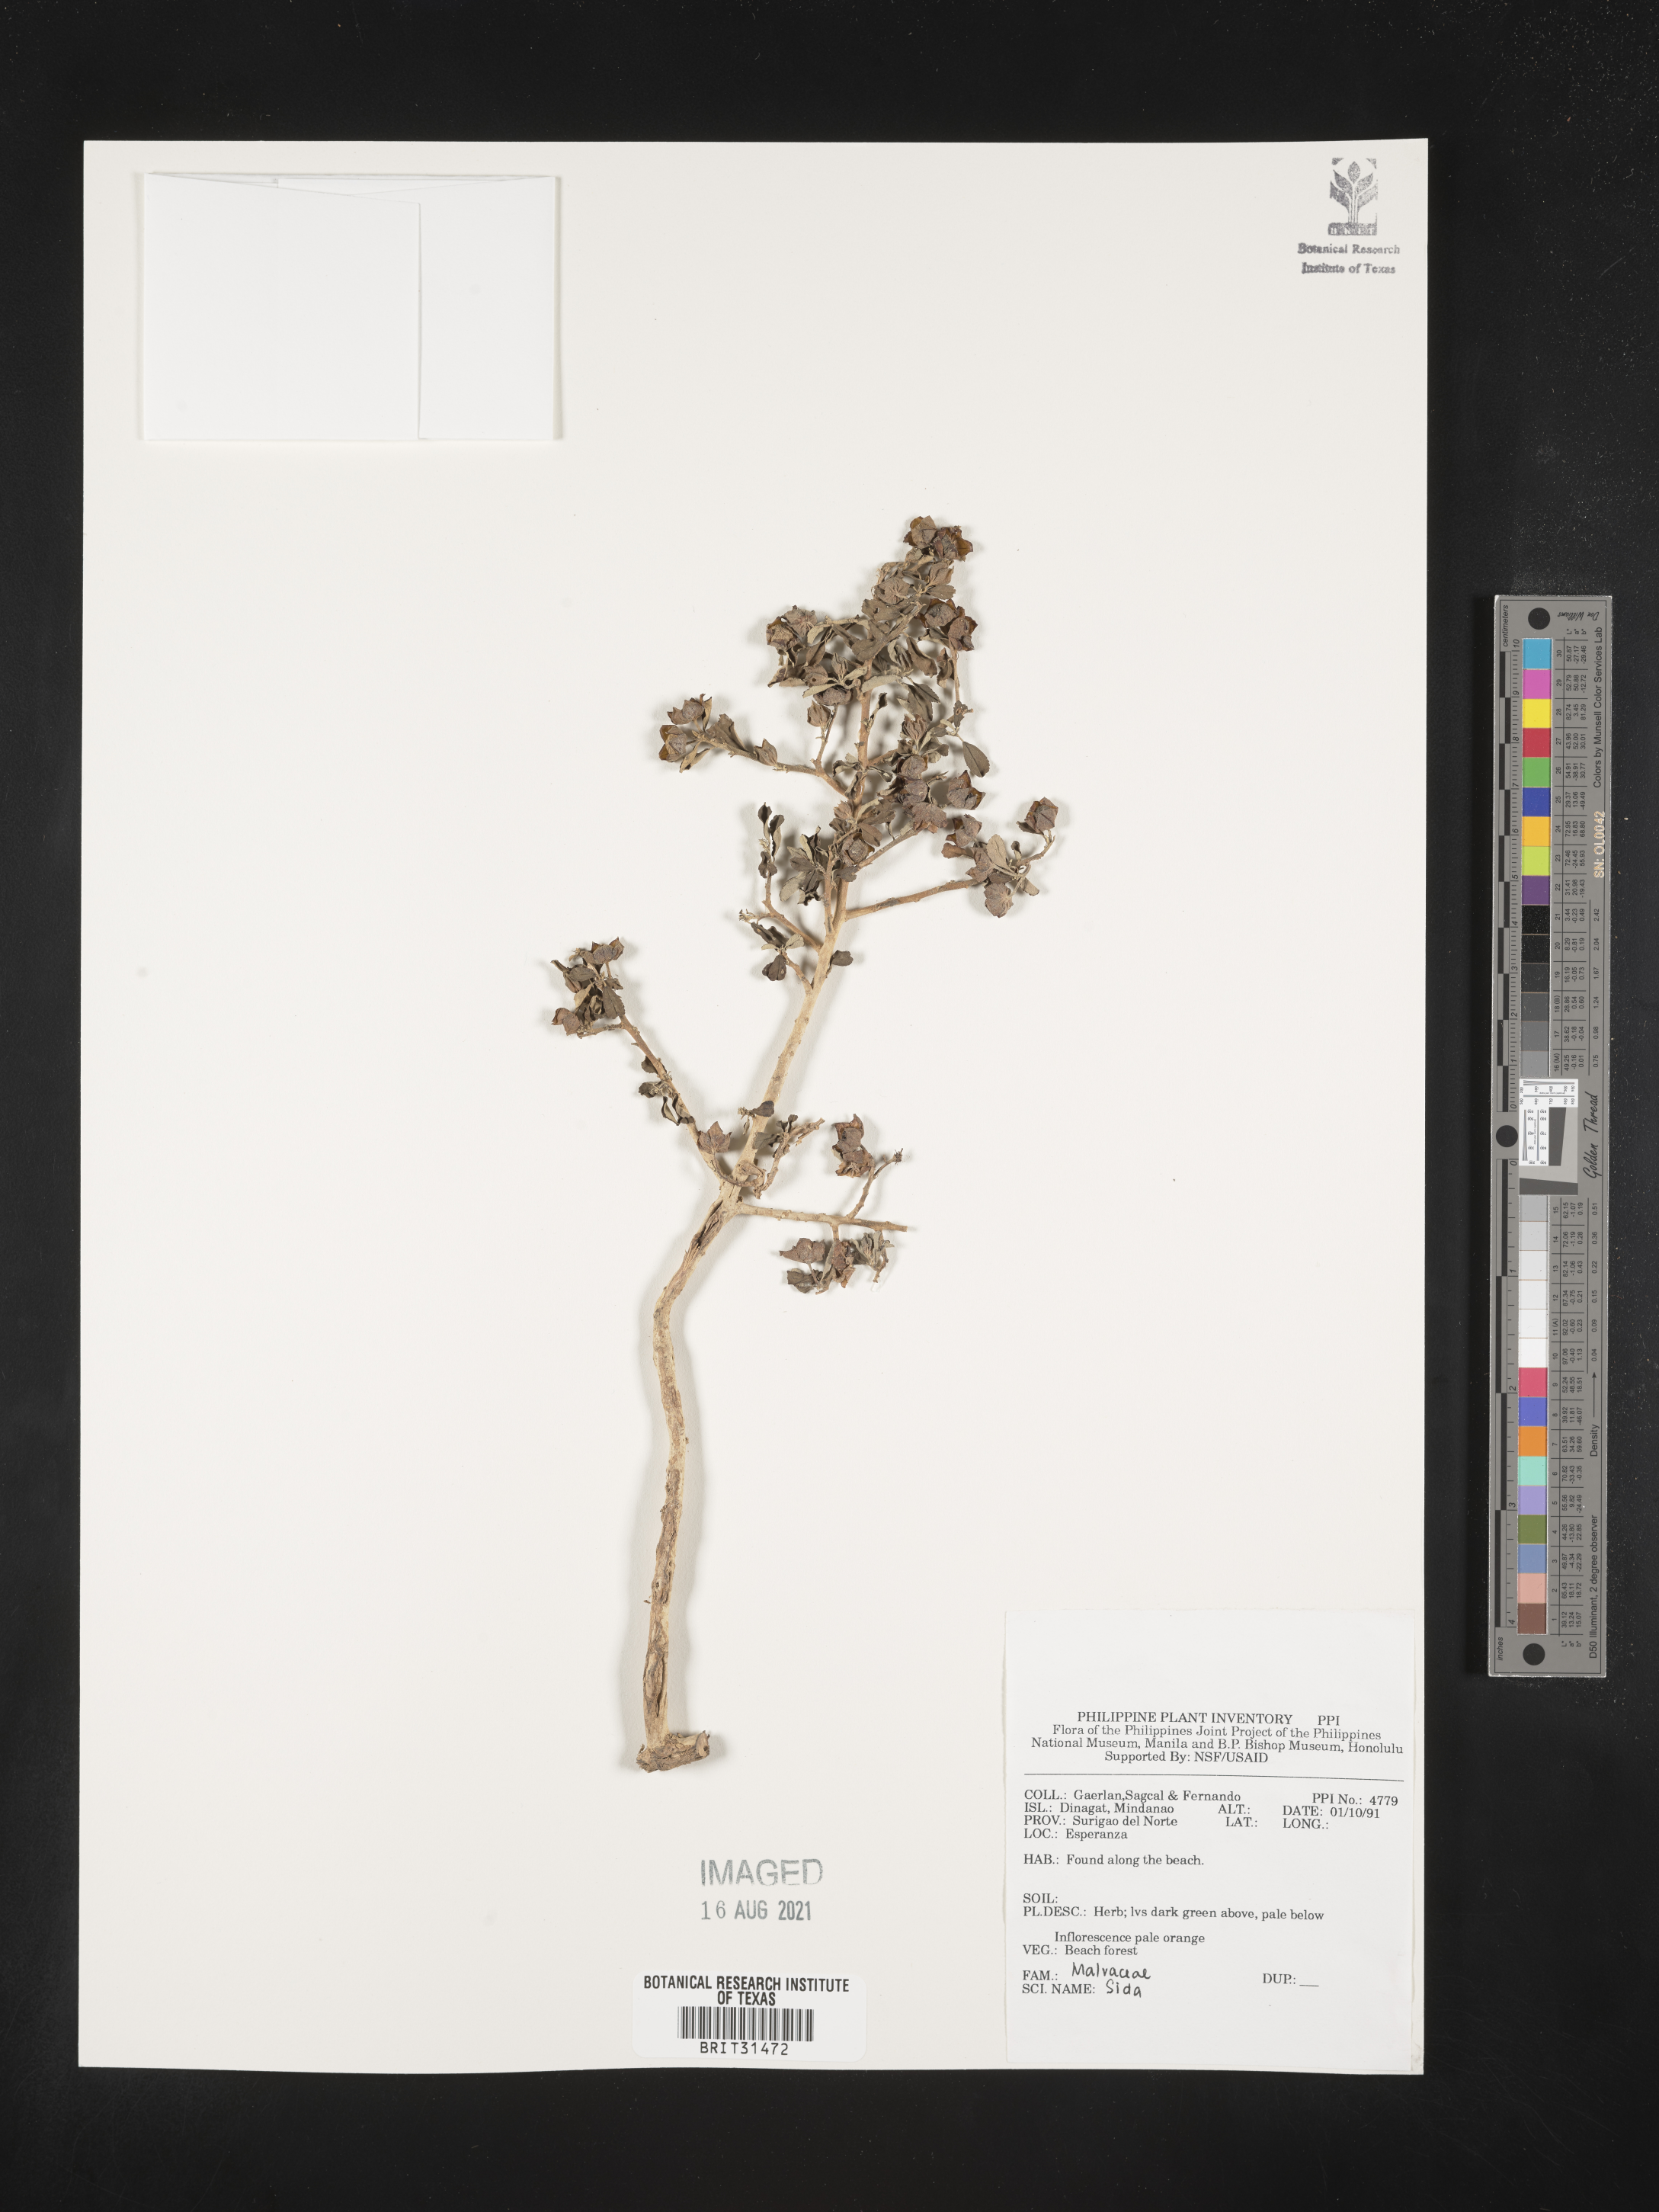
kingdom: Plantae
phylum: Tracheophyta
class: Magnoliopsida
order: Malvales
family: Malvaceae
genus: Sida
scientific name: Sida
